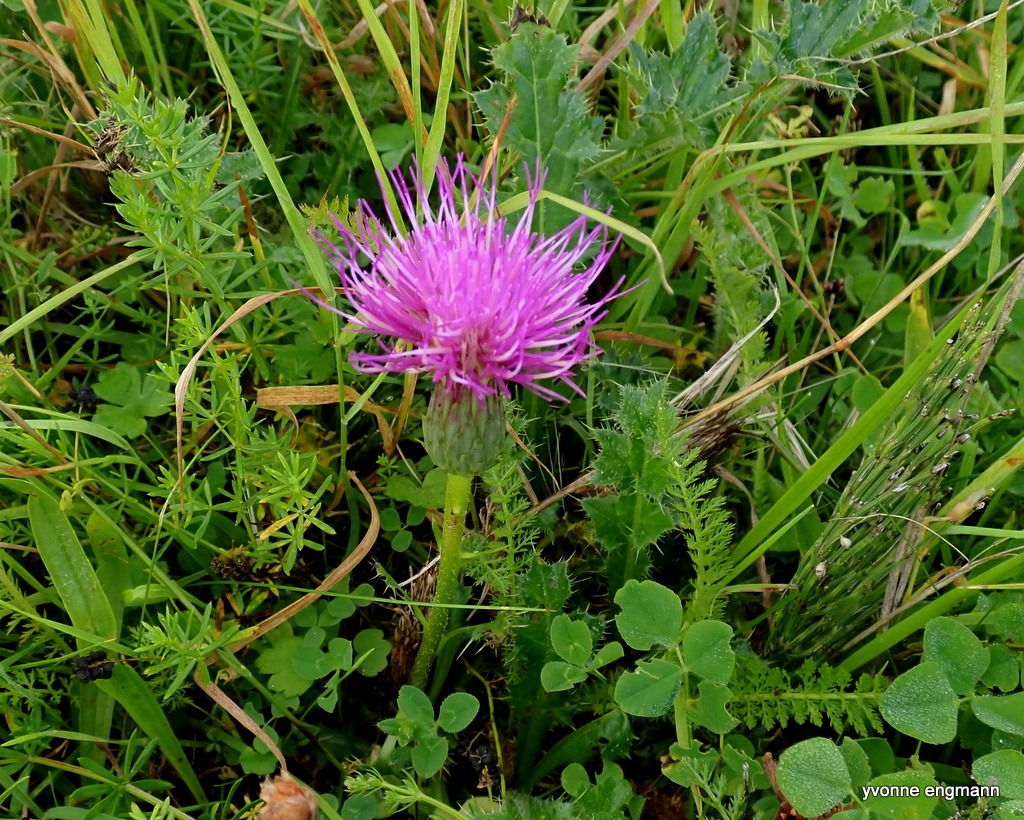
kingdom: Plantae
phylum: Tracheophyta
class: Magnoliopsida
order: Asterales
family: Asteraceae
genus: Cirsium
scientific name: Cirsium acaule
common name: Lav tidsel
